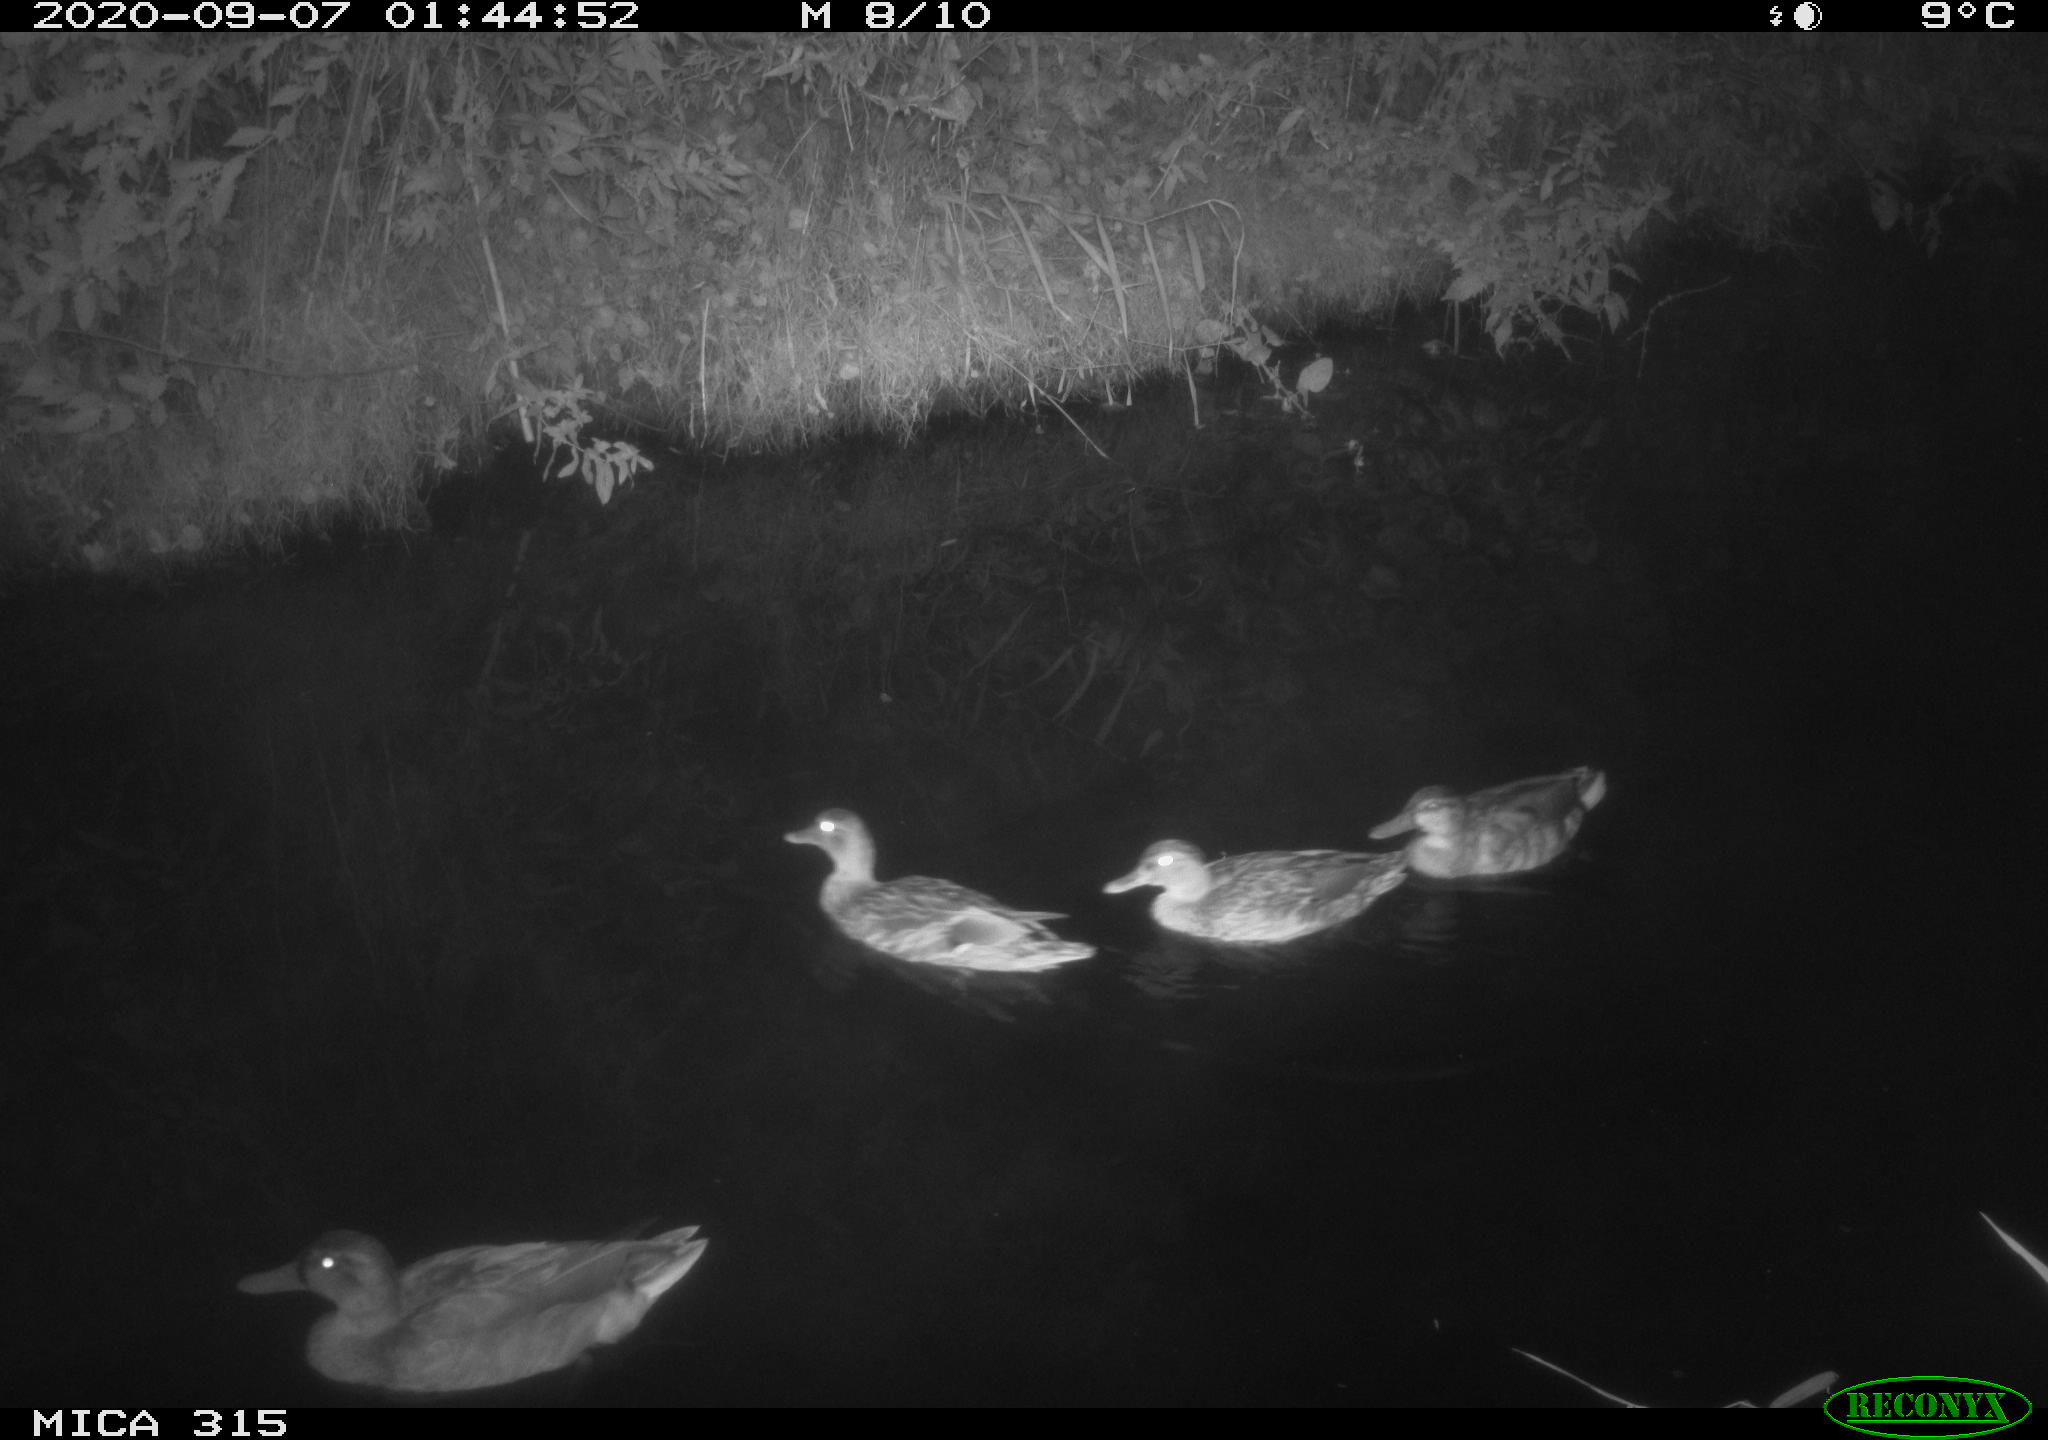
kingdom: Animalia
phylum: Chordata
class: Aves
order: Anseriformes
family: Anatidae
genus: Anas
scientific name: Anas platyrhynchos
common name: Mallard
